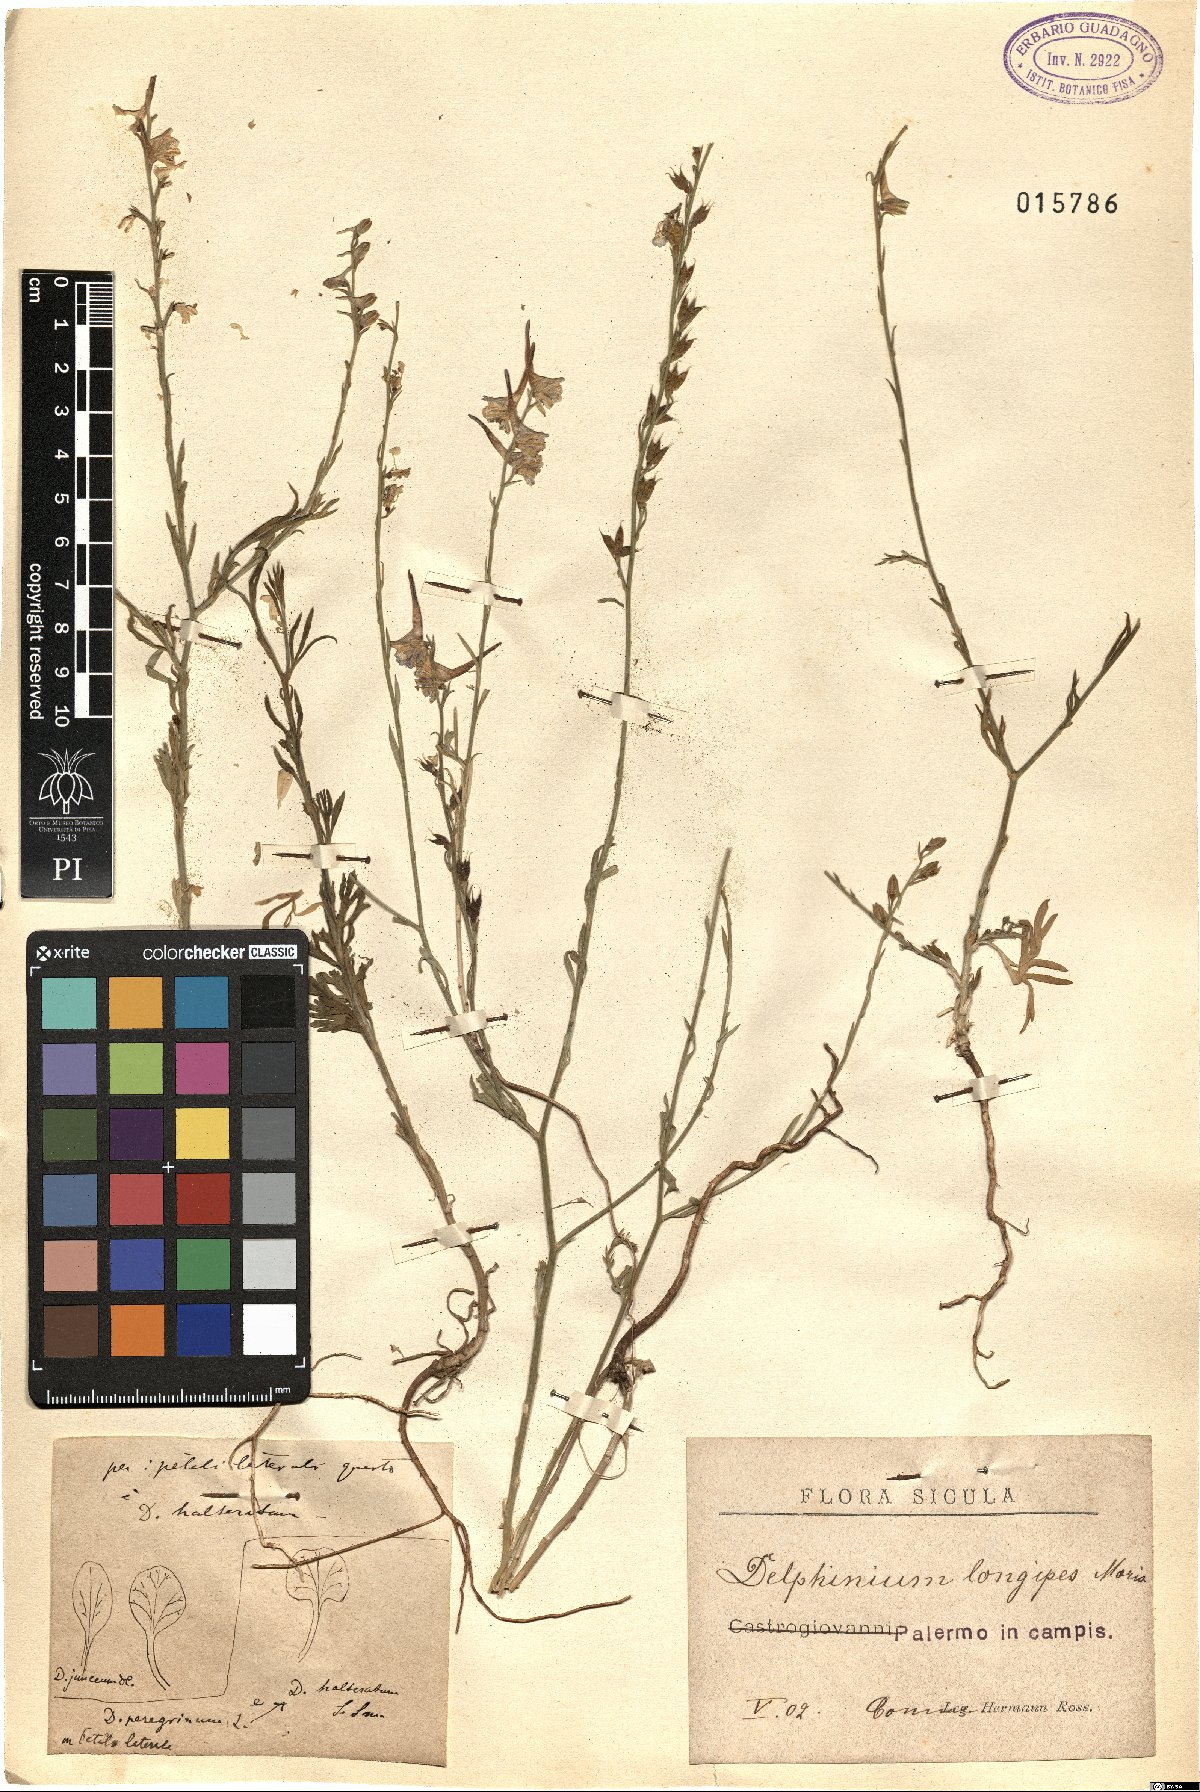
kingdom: Plantae
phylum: Tracheophyta
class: Magnoliopsida
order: Ranunculales
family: Ranunculaceae
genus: Delphinium
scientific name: Delphinium halteratum
